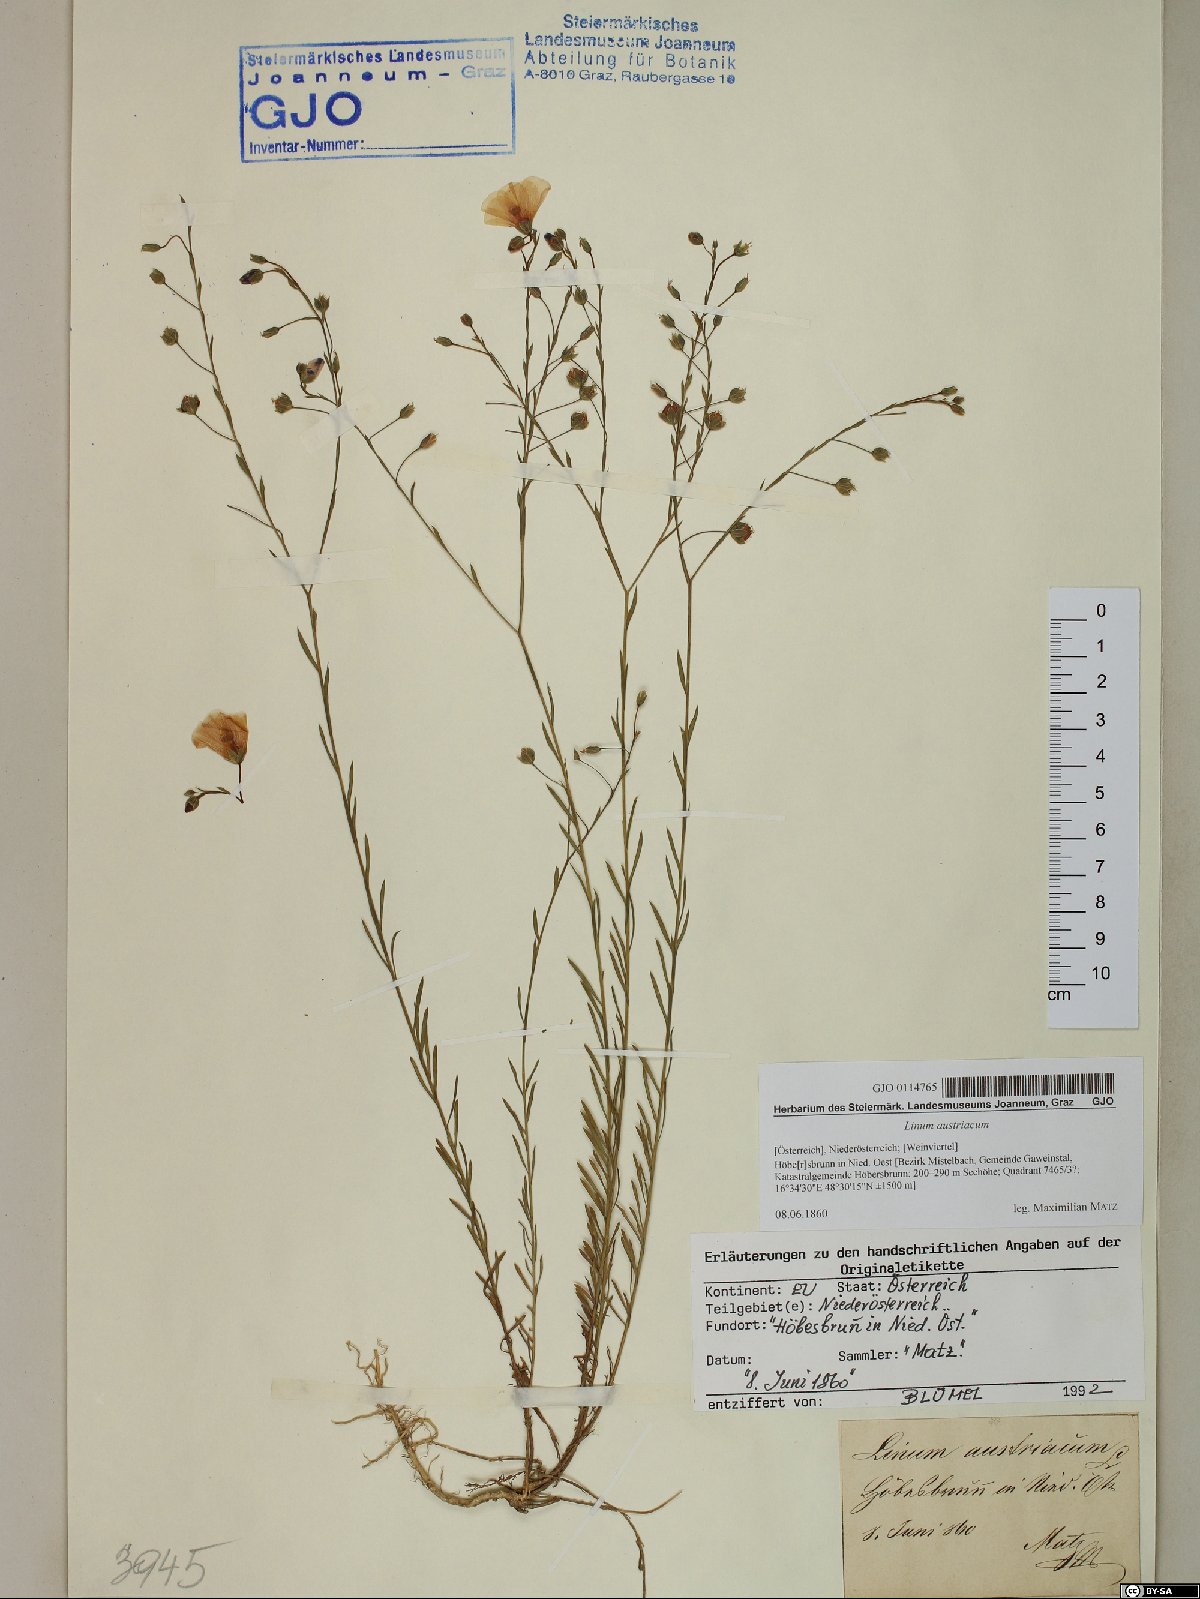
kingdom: Plantae
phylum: Tracheophyta
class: Magnoliopsida
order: Malpighiales
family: Linaceae
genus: Linum
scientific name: Linum austriacum
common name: Austrian flax
